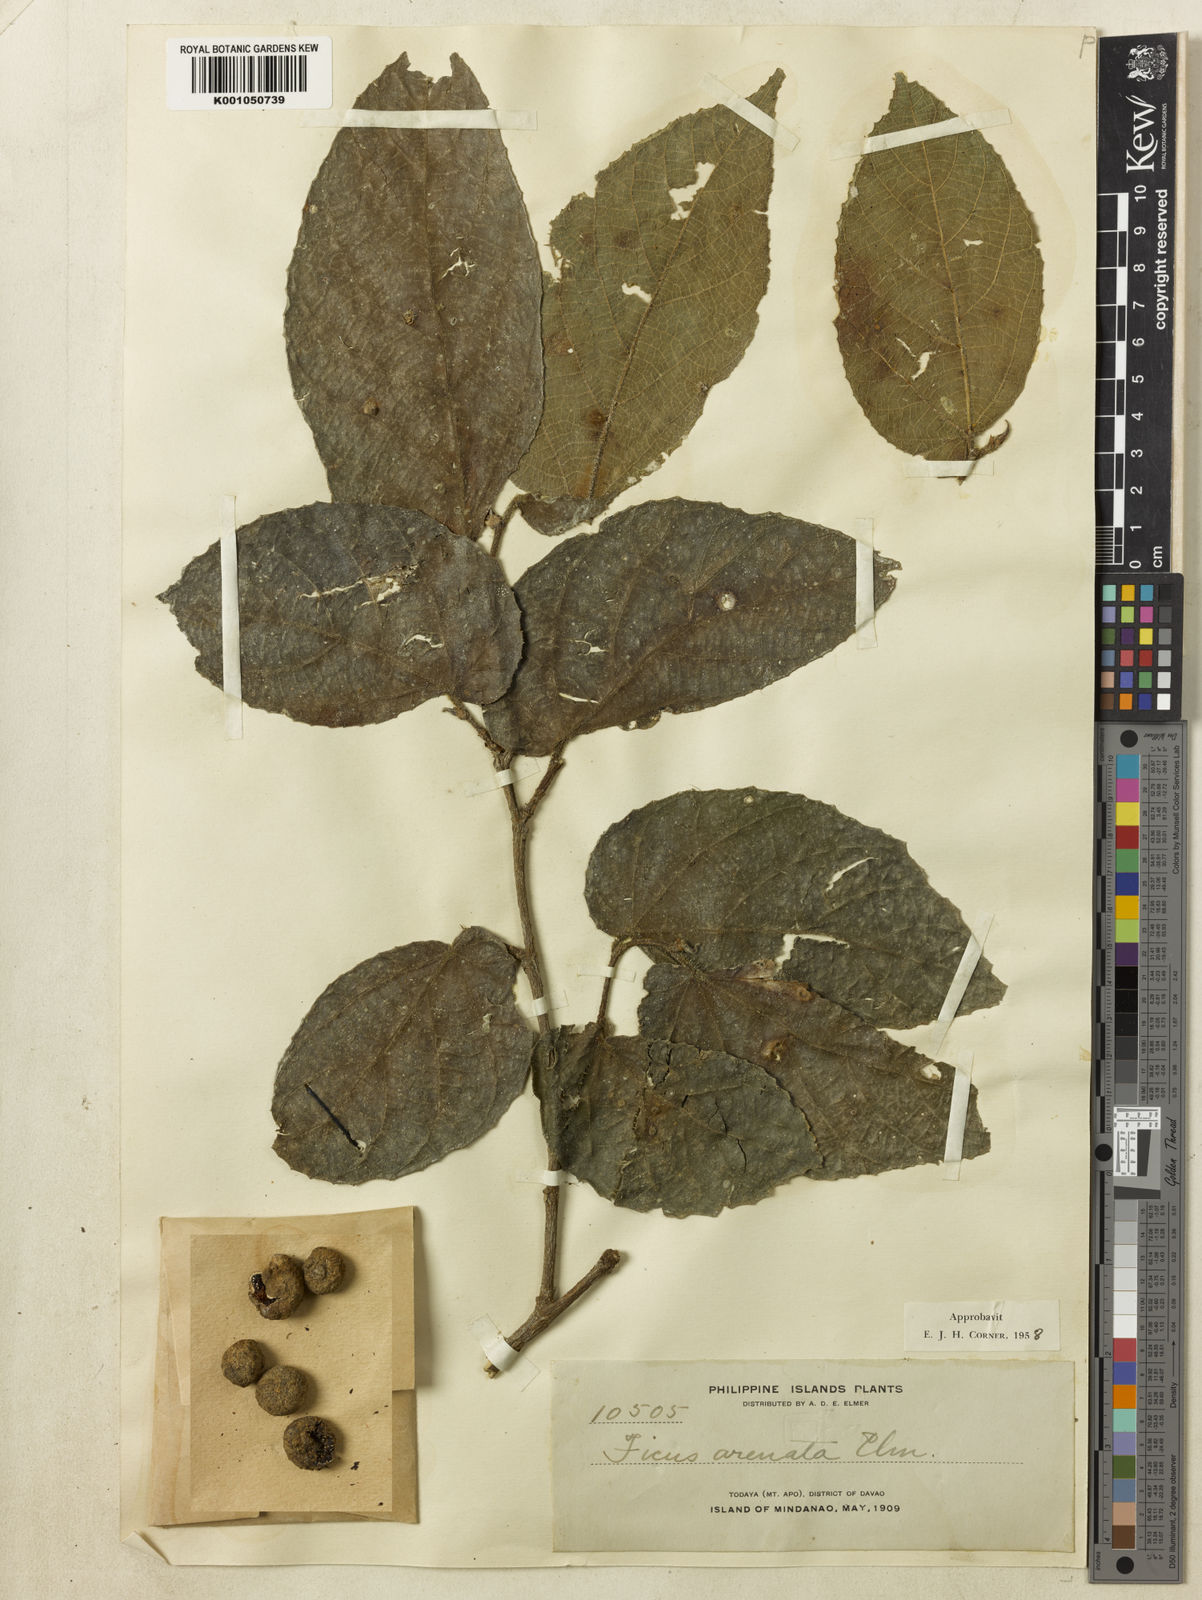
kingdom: Plantae
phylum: Tracheophyta
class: Magnoliopsida
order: Rosales
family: Moraceae
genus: Ficus
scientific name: Ficus odorata
